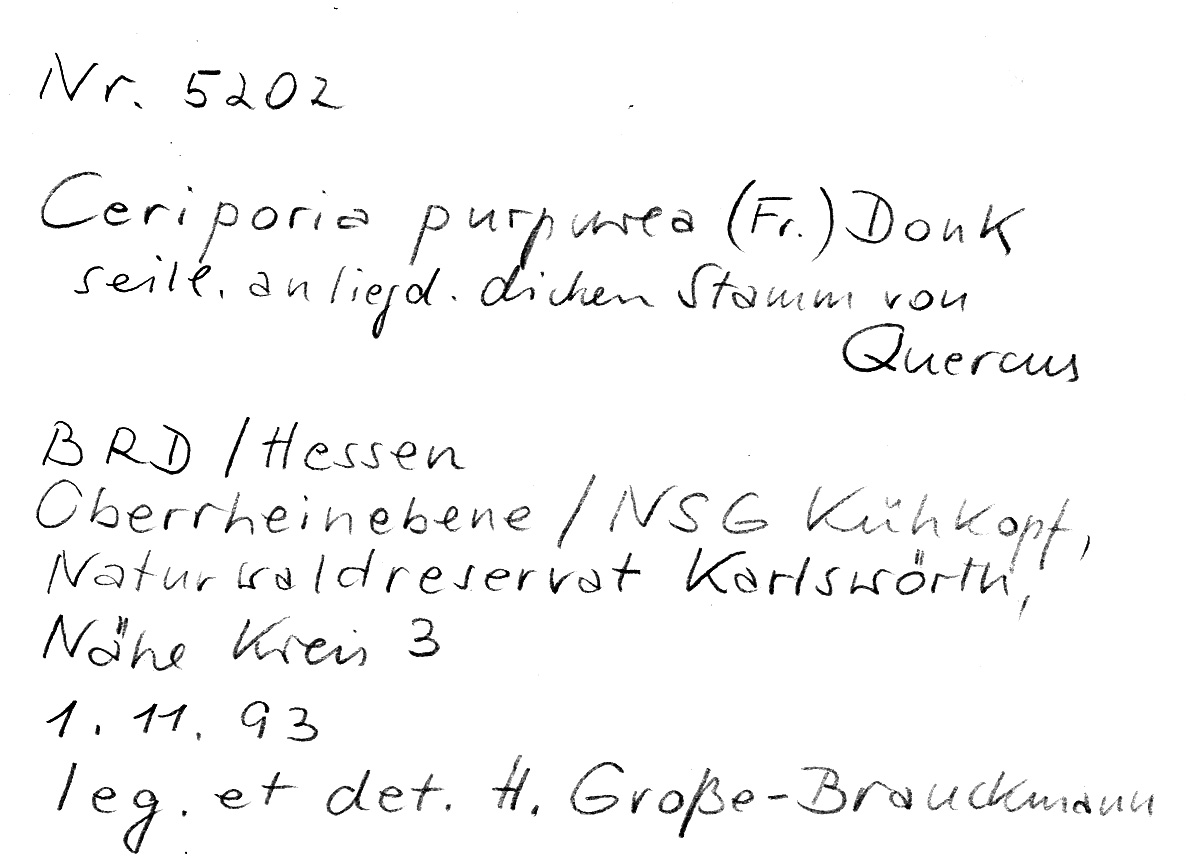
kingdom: Fungi
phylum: Basidiomycota
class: Agaricomycetes
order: Polyporales
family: Irpicaceae
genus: Ceriporia
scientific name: Ceriporia purpurea
